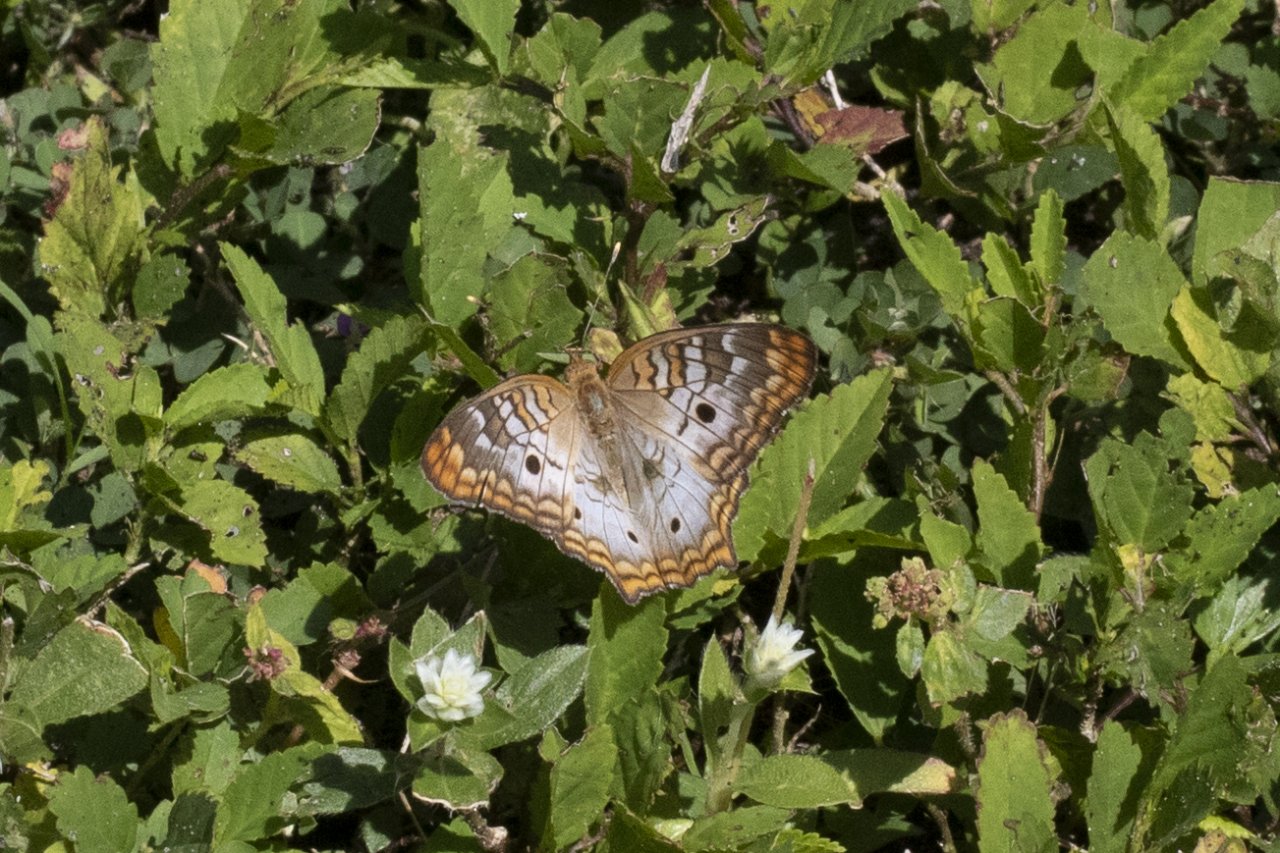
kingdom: Animalia
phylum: Arthropoda
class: Insecta
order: Lepidoptera
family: Nymphalidae
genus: Anartia
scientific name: Anartia jatrophae
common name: White Peacock
